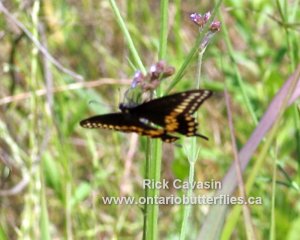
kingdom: Animalia
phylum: Arthropoda
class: Insecta
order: Lepidoptera
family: Papilionidae
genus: Papilio
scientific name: Papilio polyxenes
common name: Black Swallowtail
